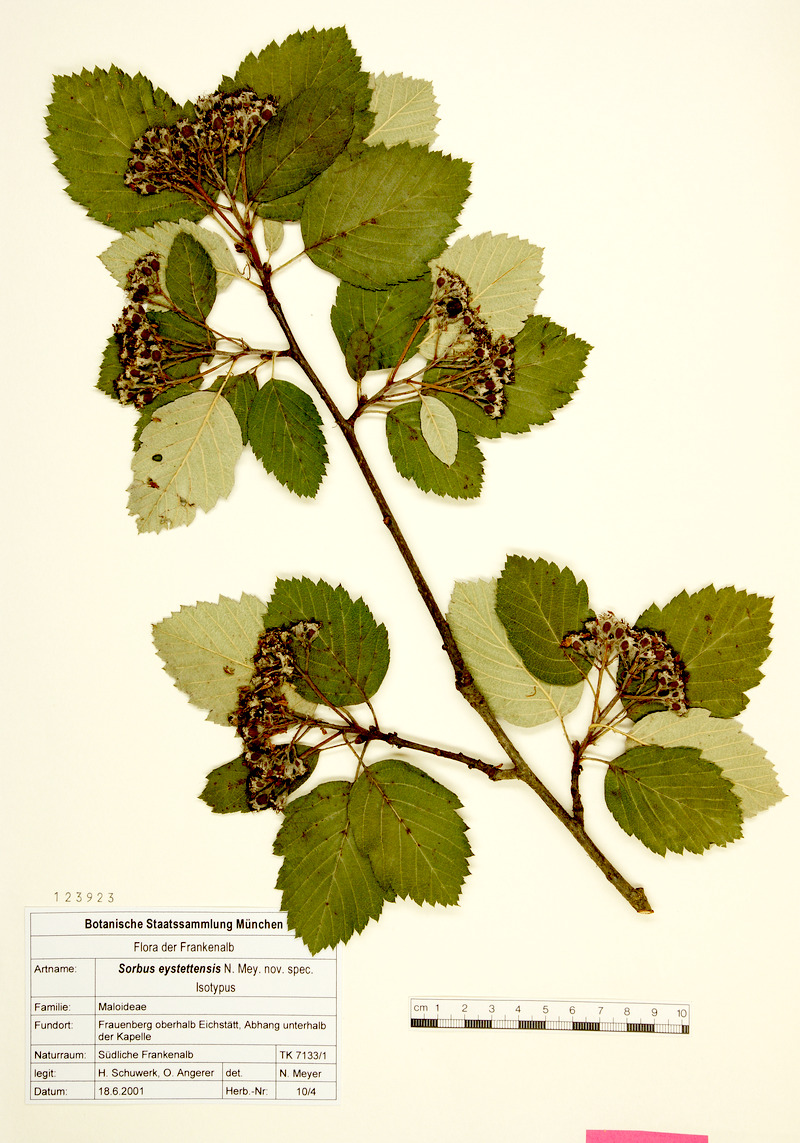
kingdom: Plantae
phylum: Tracheophyta
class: Magnoliopsida
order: Rosales
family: Rosaceae
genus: Karpatiosorbus
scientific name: Karpatiosorbus eystettensis
